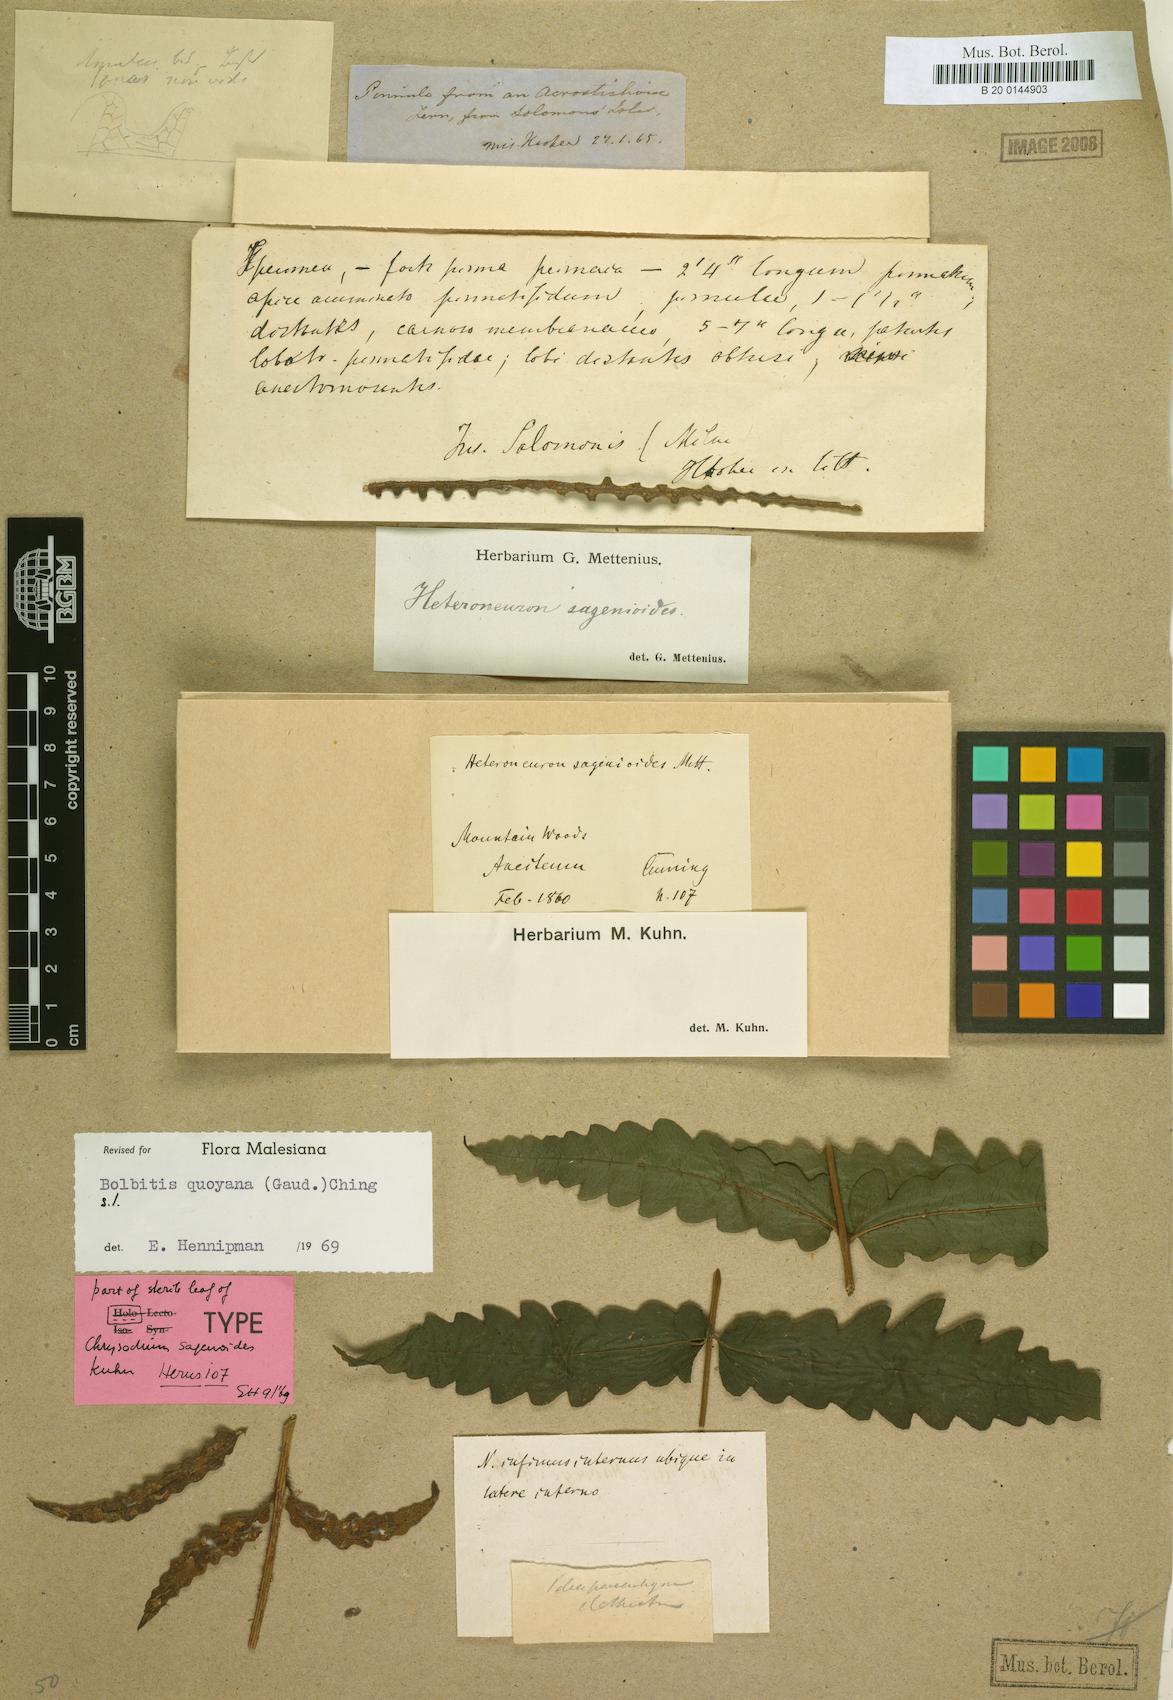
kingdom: Plantae
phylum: Tracheophyta
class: Polypodiopsida
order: Polypodiales
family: Dryopteridaceae
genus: Bolbitis
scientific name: Bolbitis quoyana
